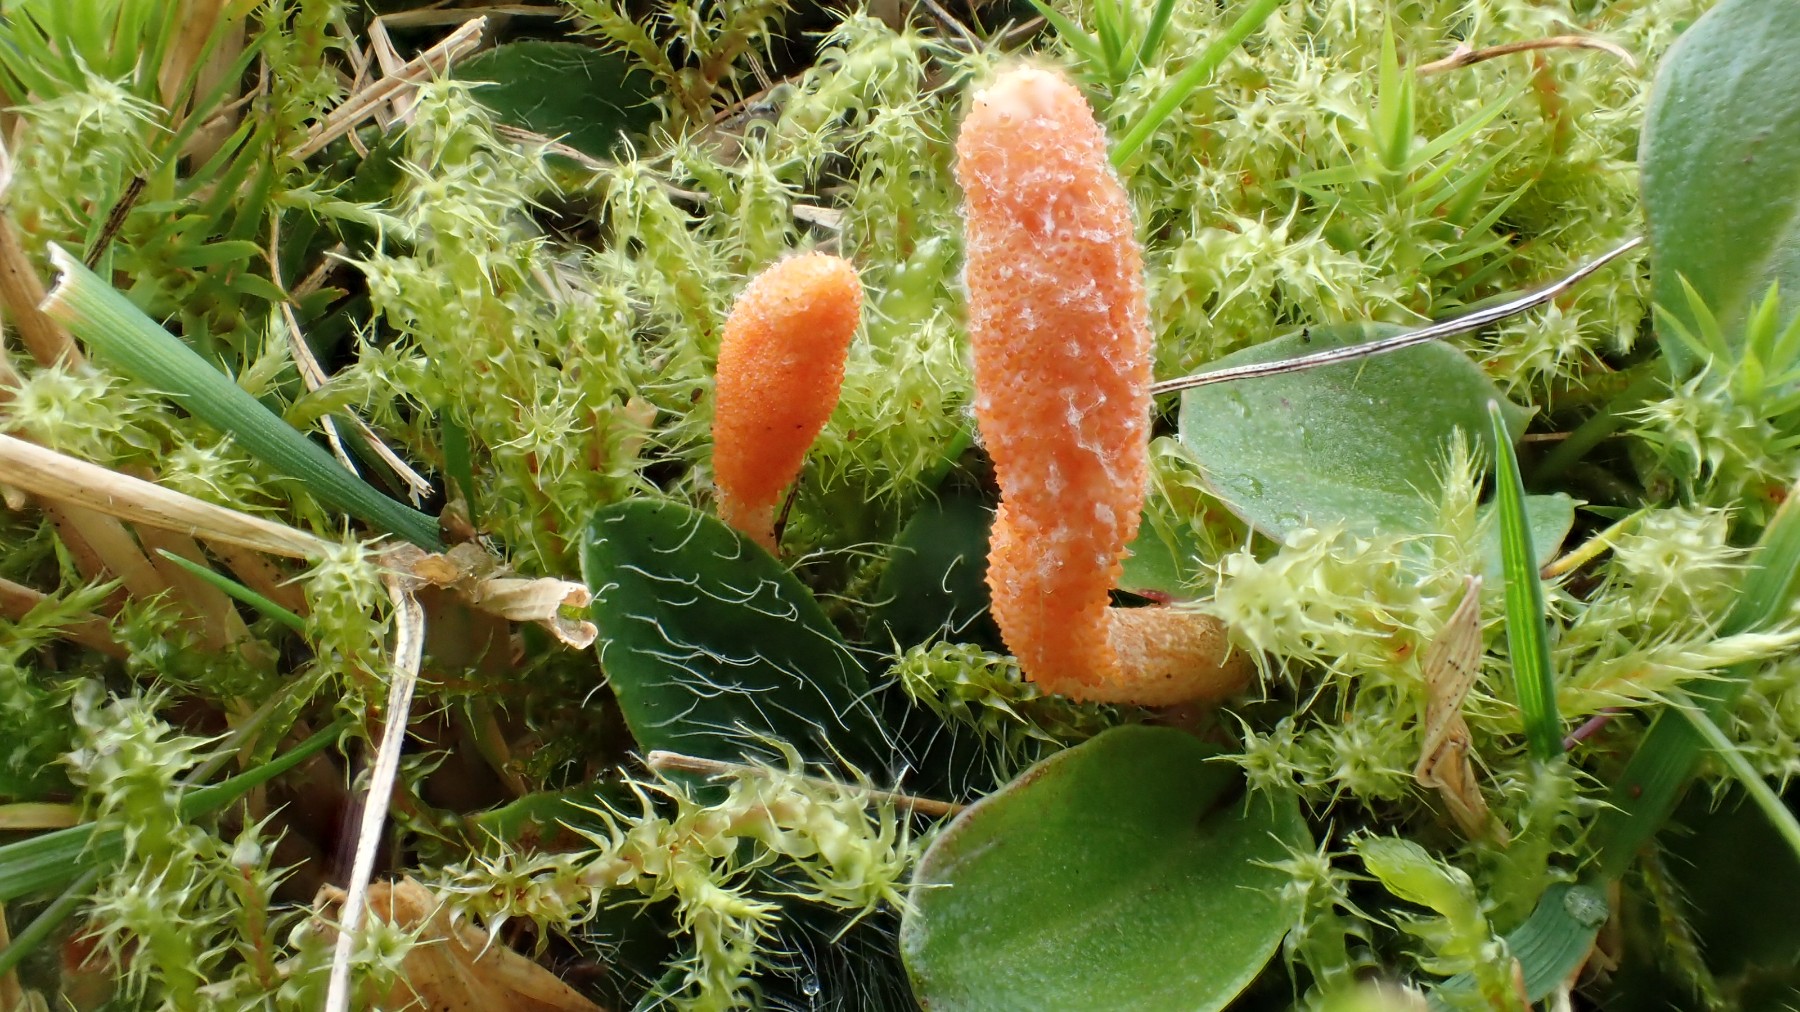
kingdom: Fungi
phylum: Ascomycota
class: Sordariomycetes
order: Hypocreales
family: Cordycipitaceae
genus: Cordyceps
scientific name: Cordyceps militaris
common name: puppe-snyltekølle
